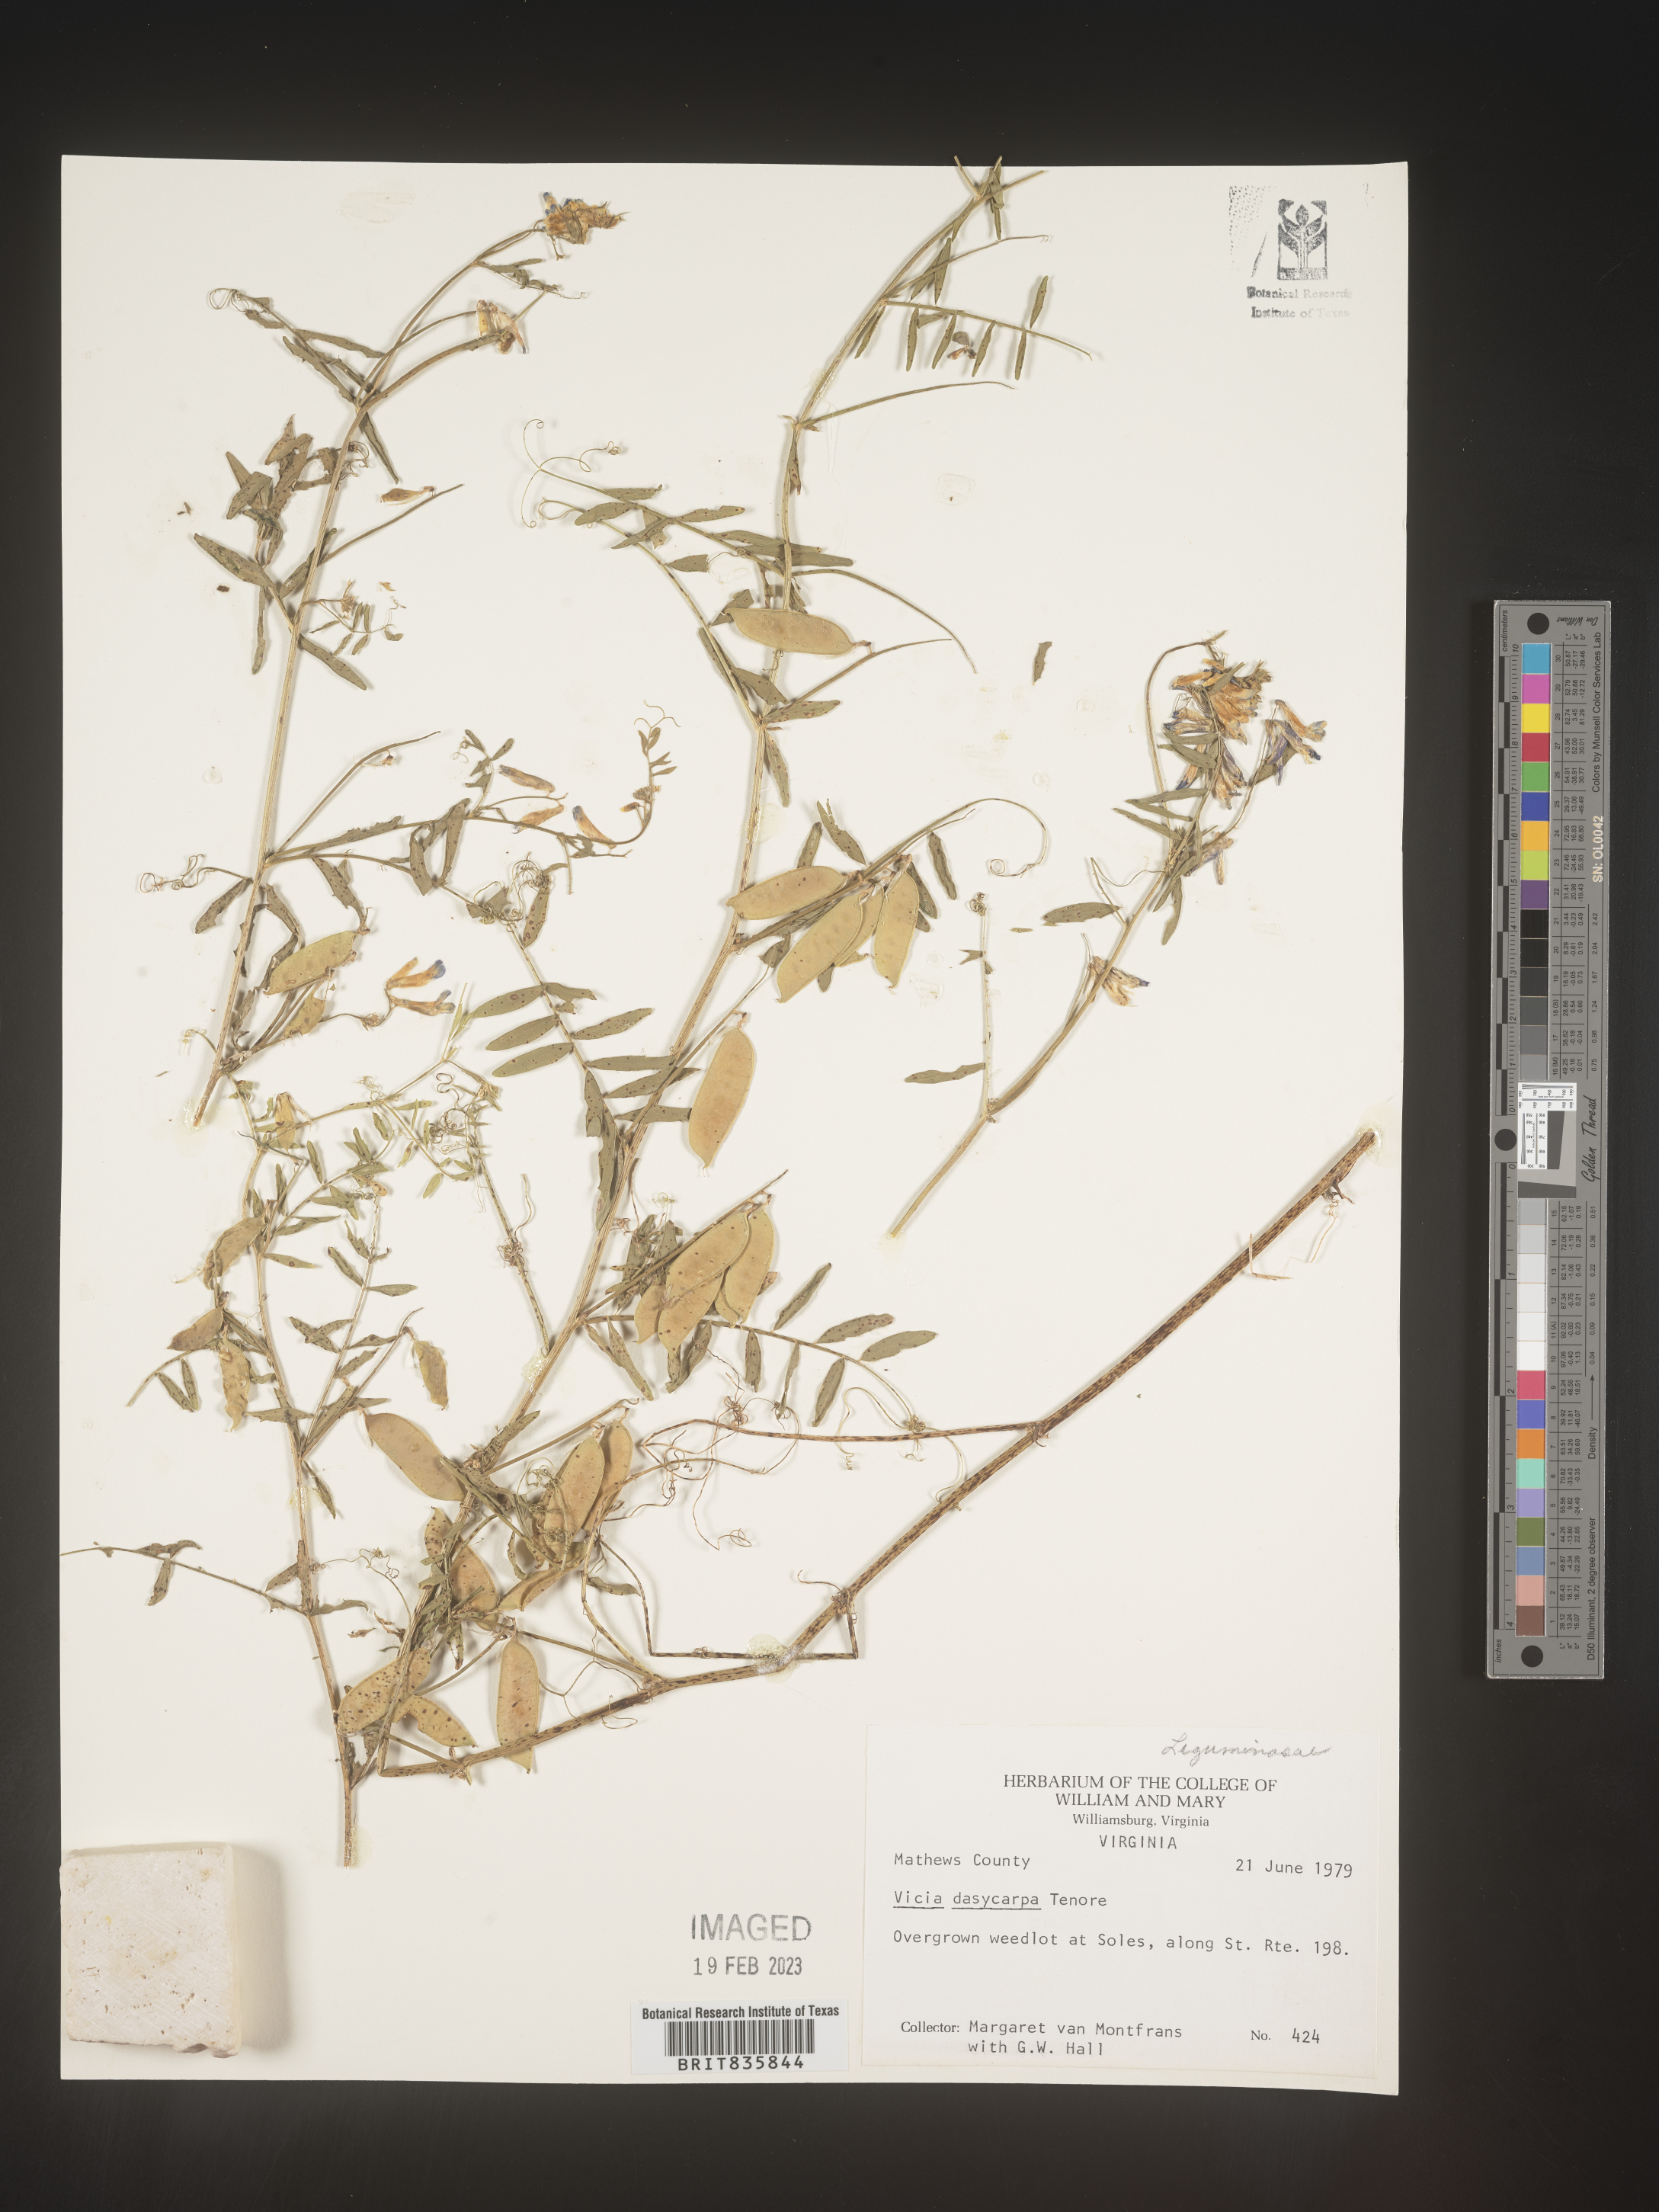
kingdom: Plantae
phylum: Tracheophyta
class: Magnoliopsida
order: Fabales
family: Fabaceae
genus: Vicia
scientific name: Vicia villosa
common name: Fodder vetch
